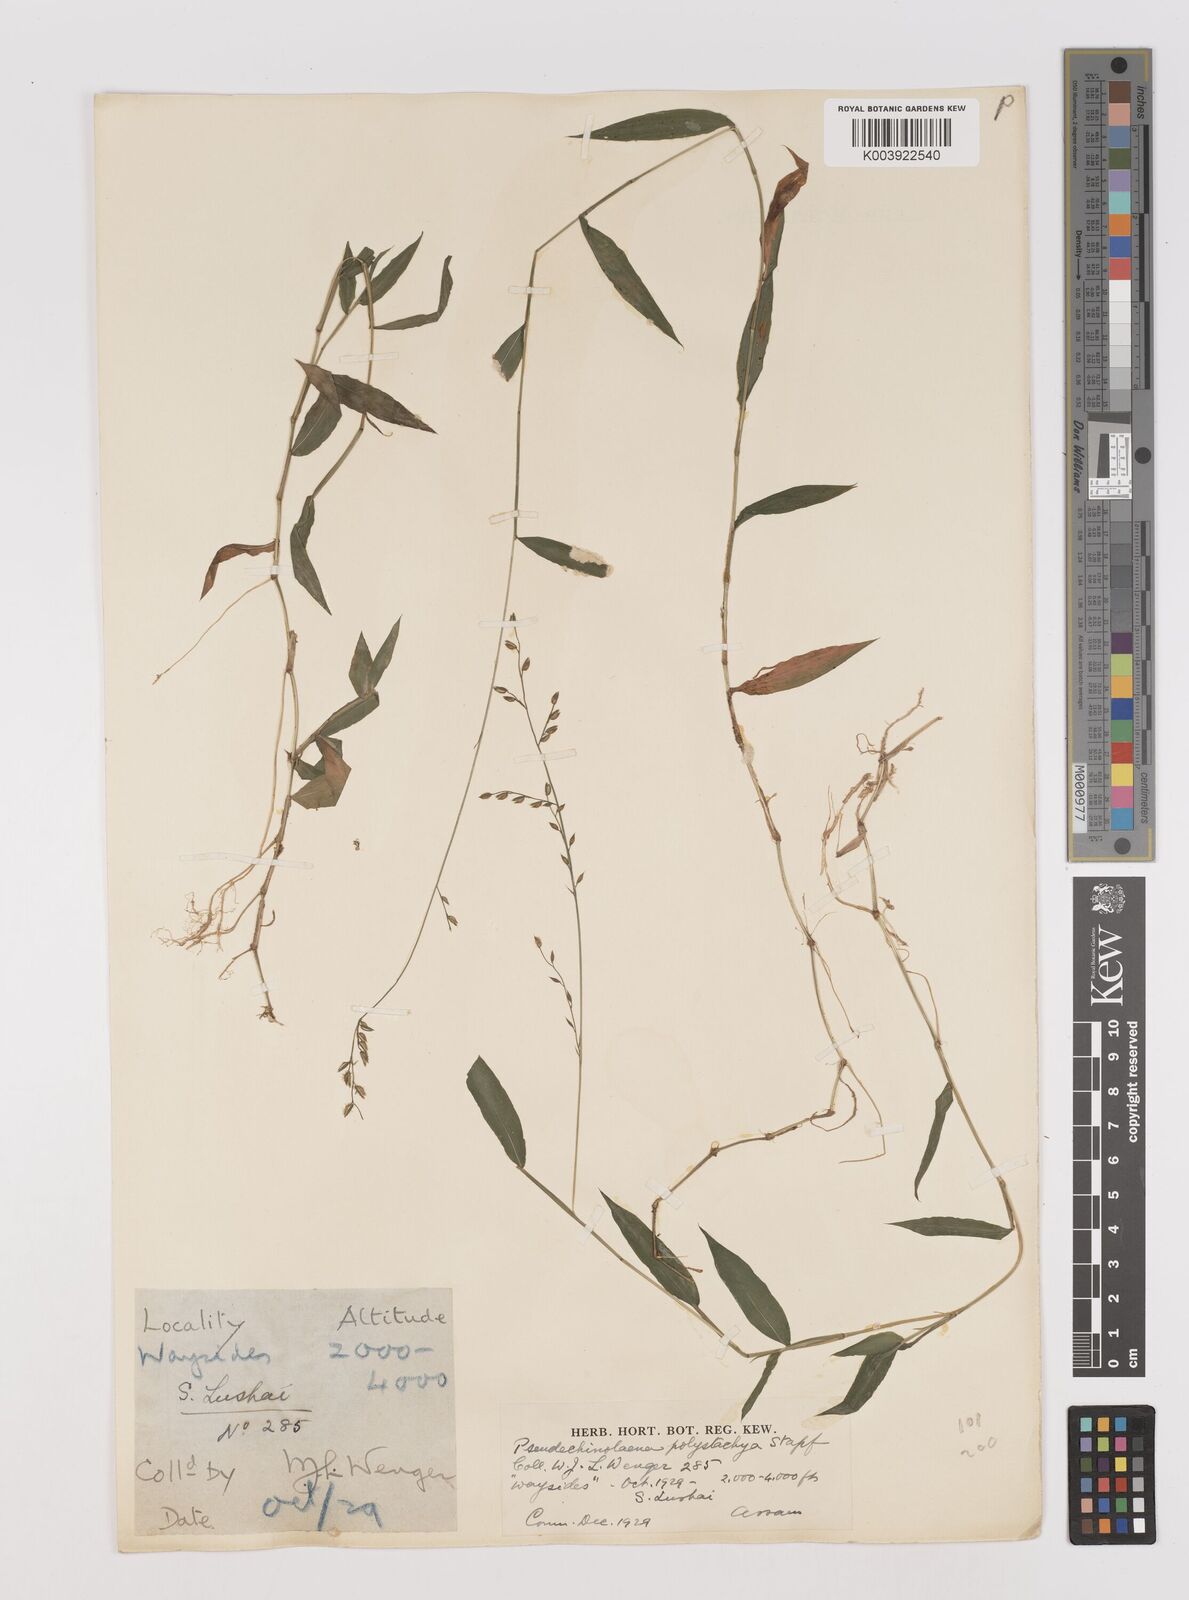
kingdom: Plantae
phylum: Tracheophyta
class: Liliopsida
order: Poales
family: Poaceae
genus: Pseudechinolaena
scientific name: Pseudechinolaena polystachya
